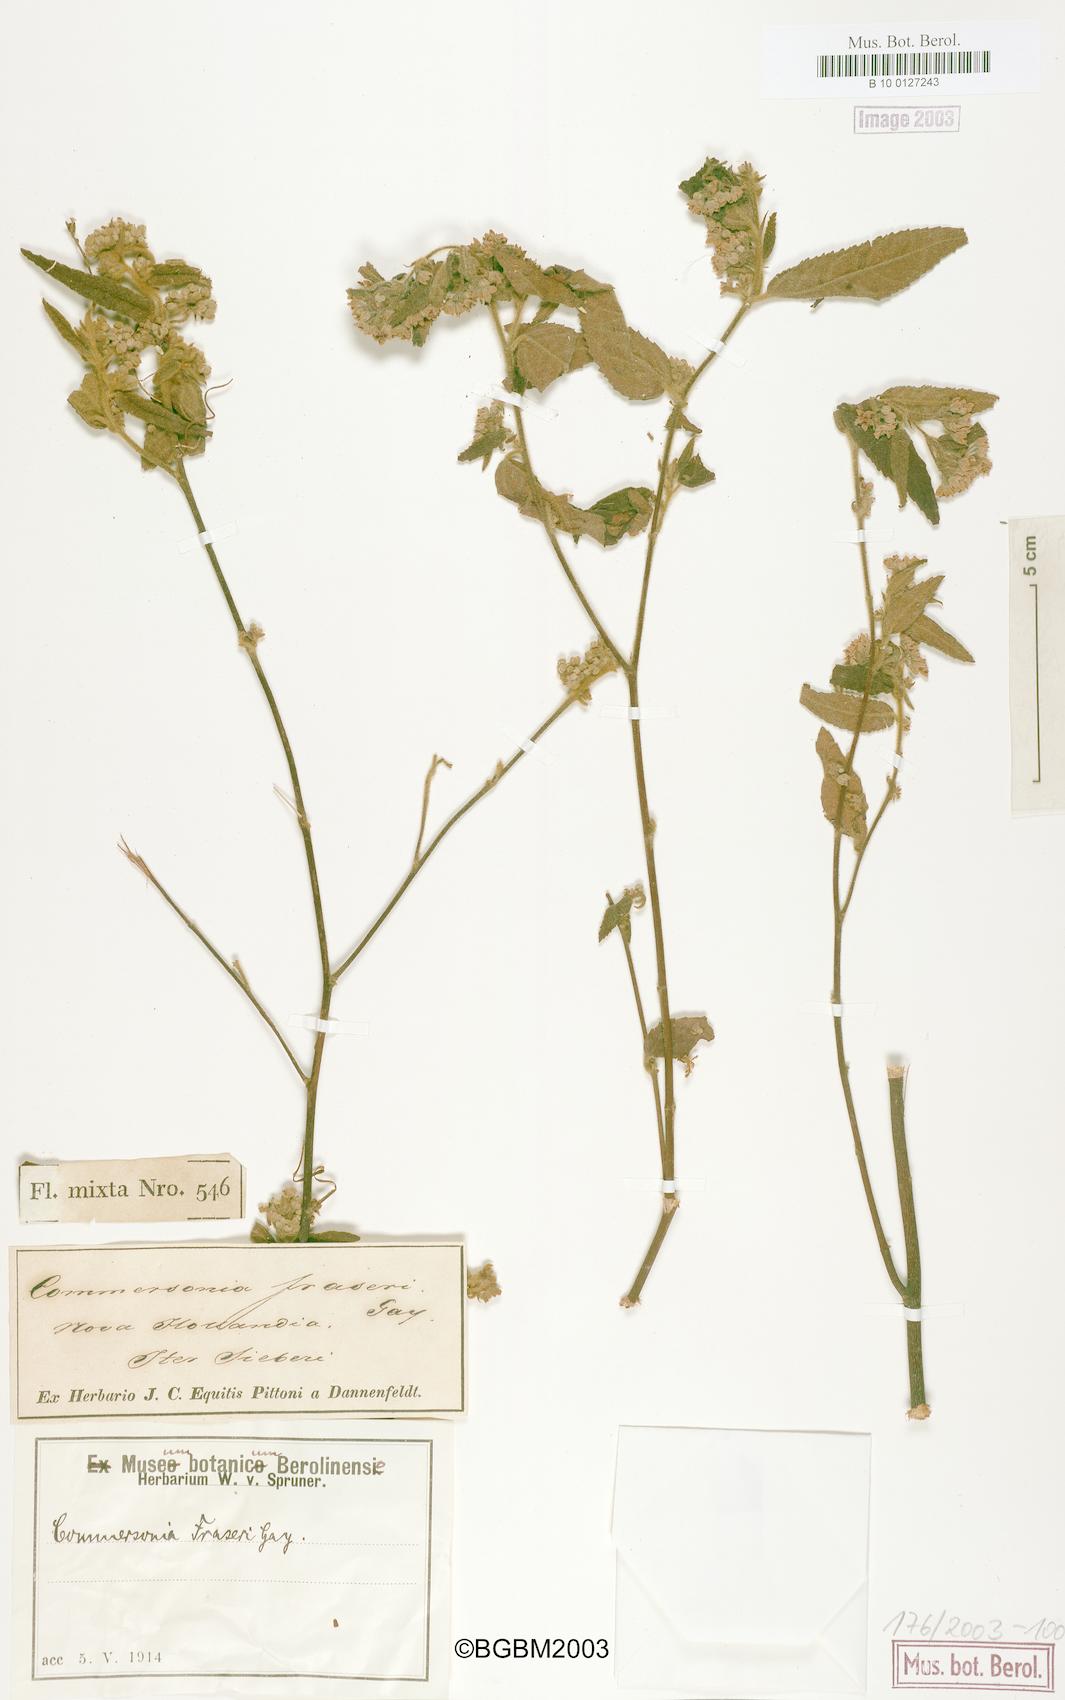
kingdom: Plantae
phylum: Tracheophyta
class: Magnoliopsida
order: Malvales
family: Malvaceae
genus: Commersonia
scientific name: Commersonia dasyphylla
